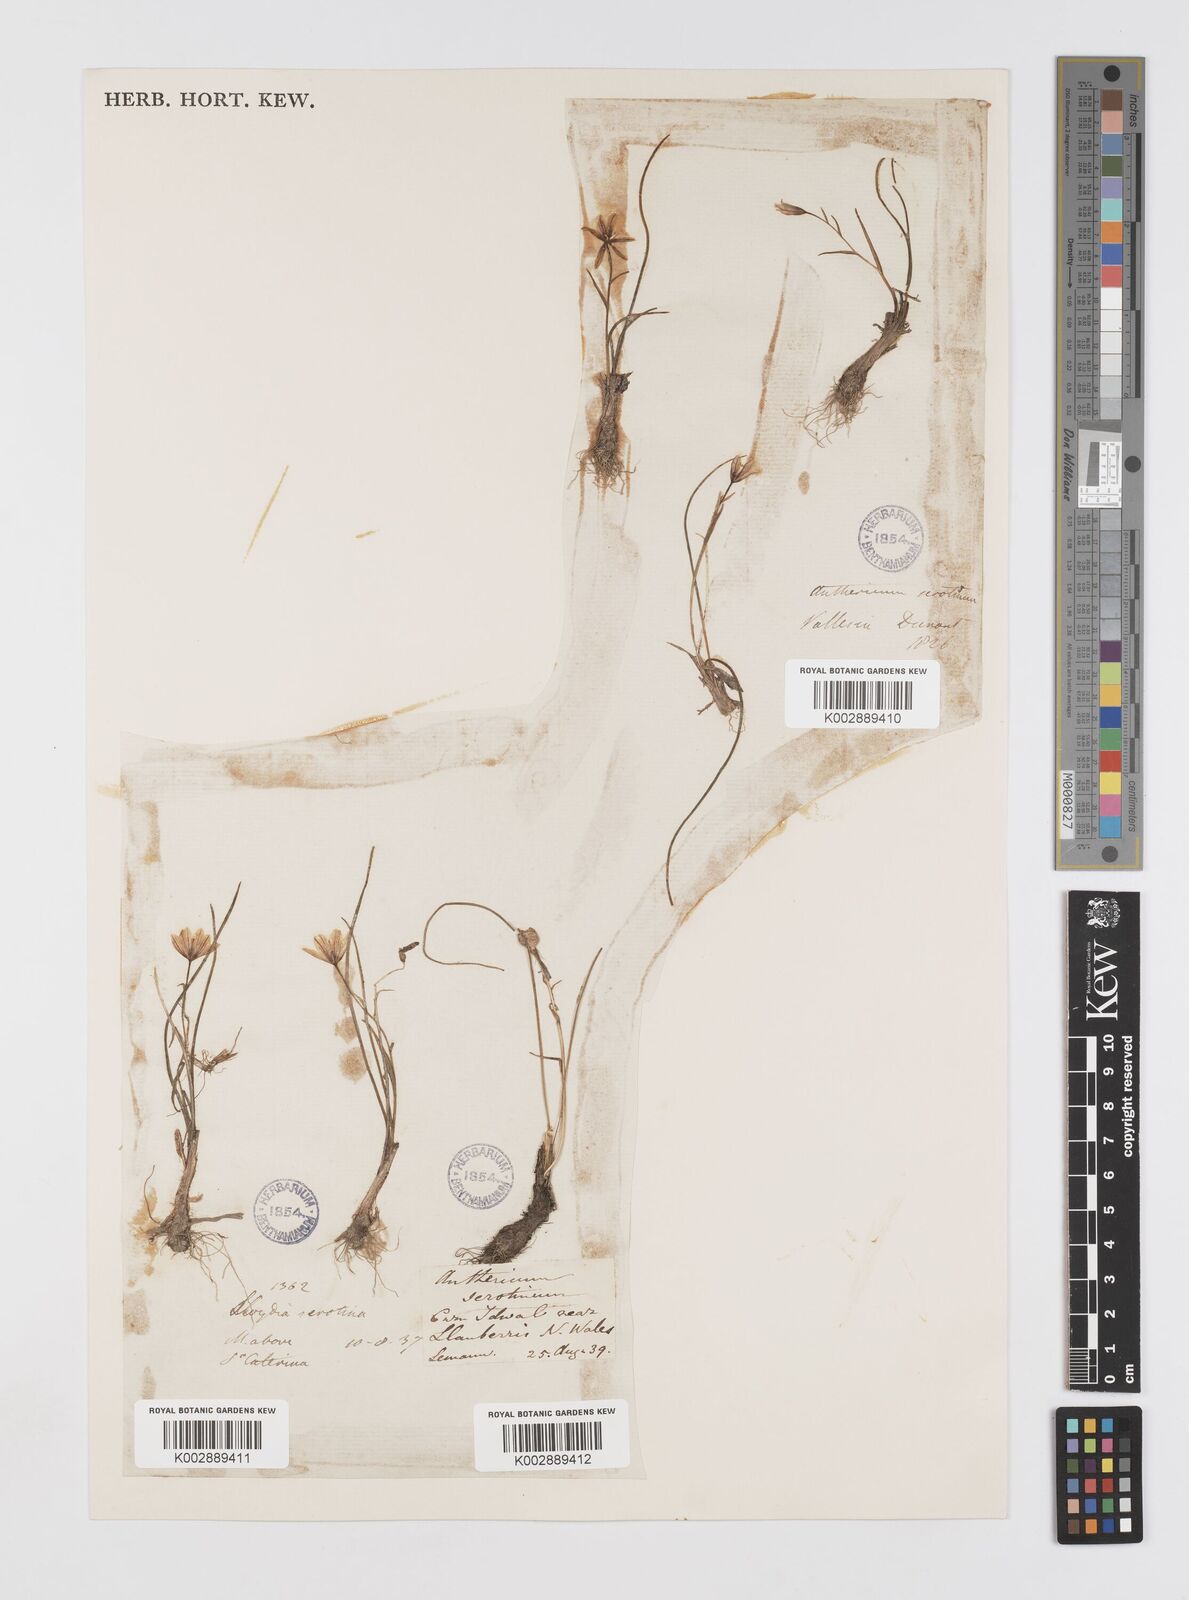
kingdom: Plantae
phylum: Tracheophyta
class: Liliopsida
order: Liliales
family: Liliaceae
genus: Gagea
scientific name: Gagea
